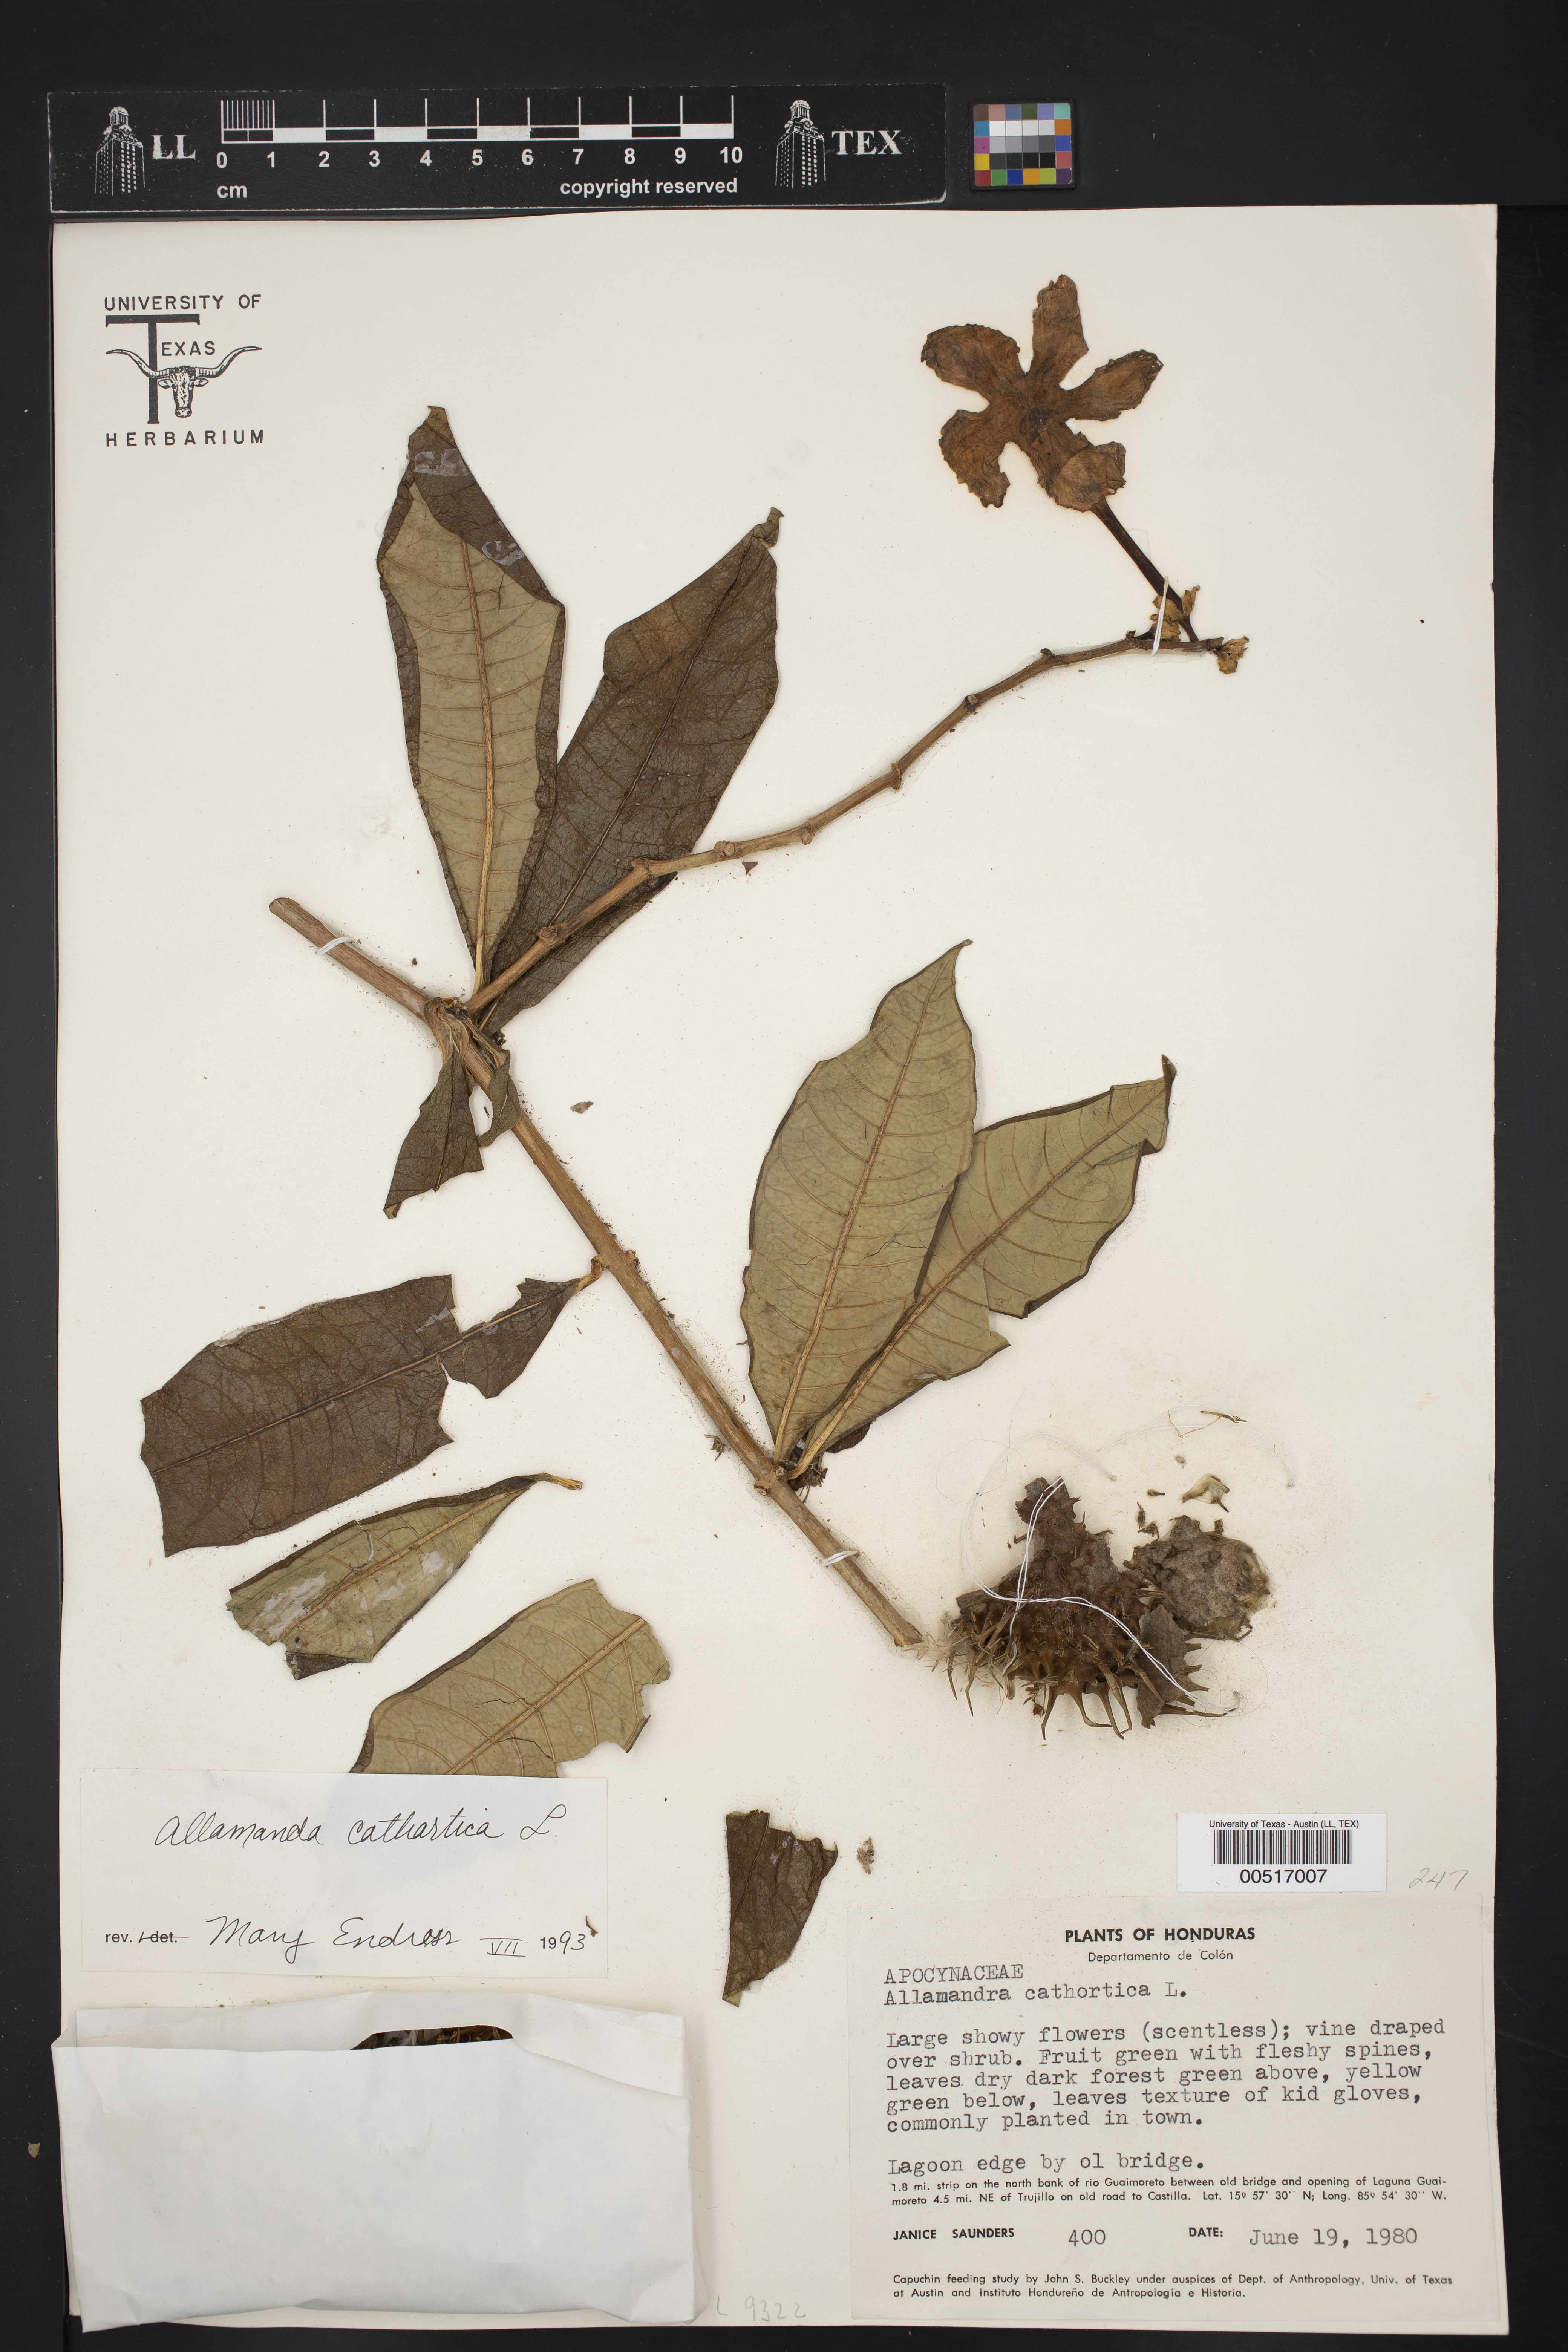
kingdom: Plantae
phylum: Tracheophyta
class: Magnoliopsida
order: Gentianales
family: Apocynaceae
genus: Allamanda
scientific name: Allamanda cathartica
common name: Golden trumpet
